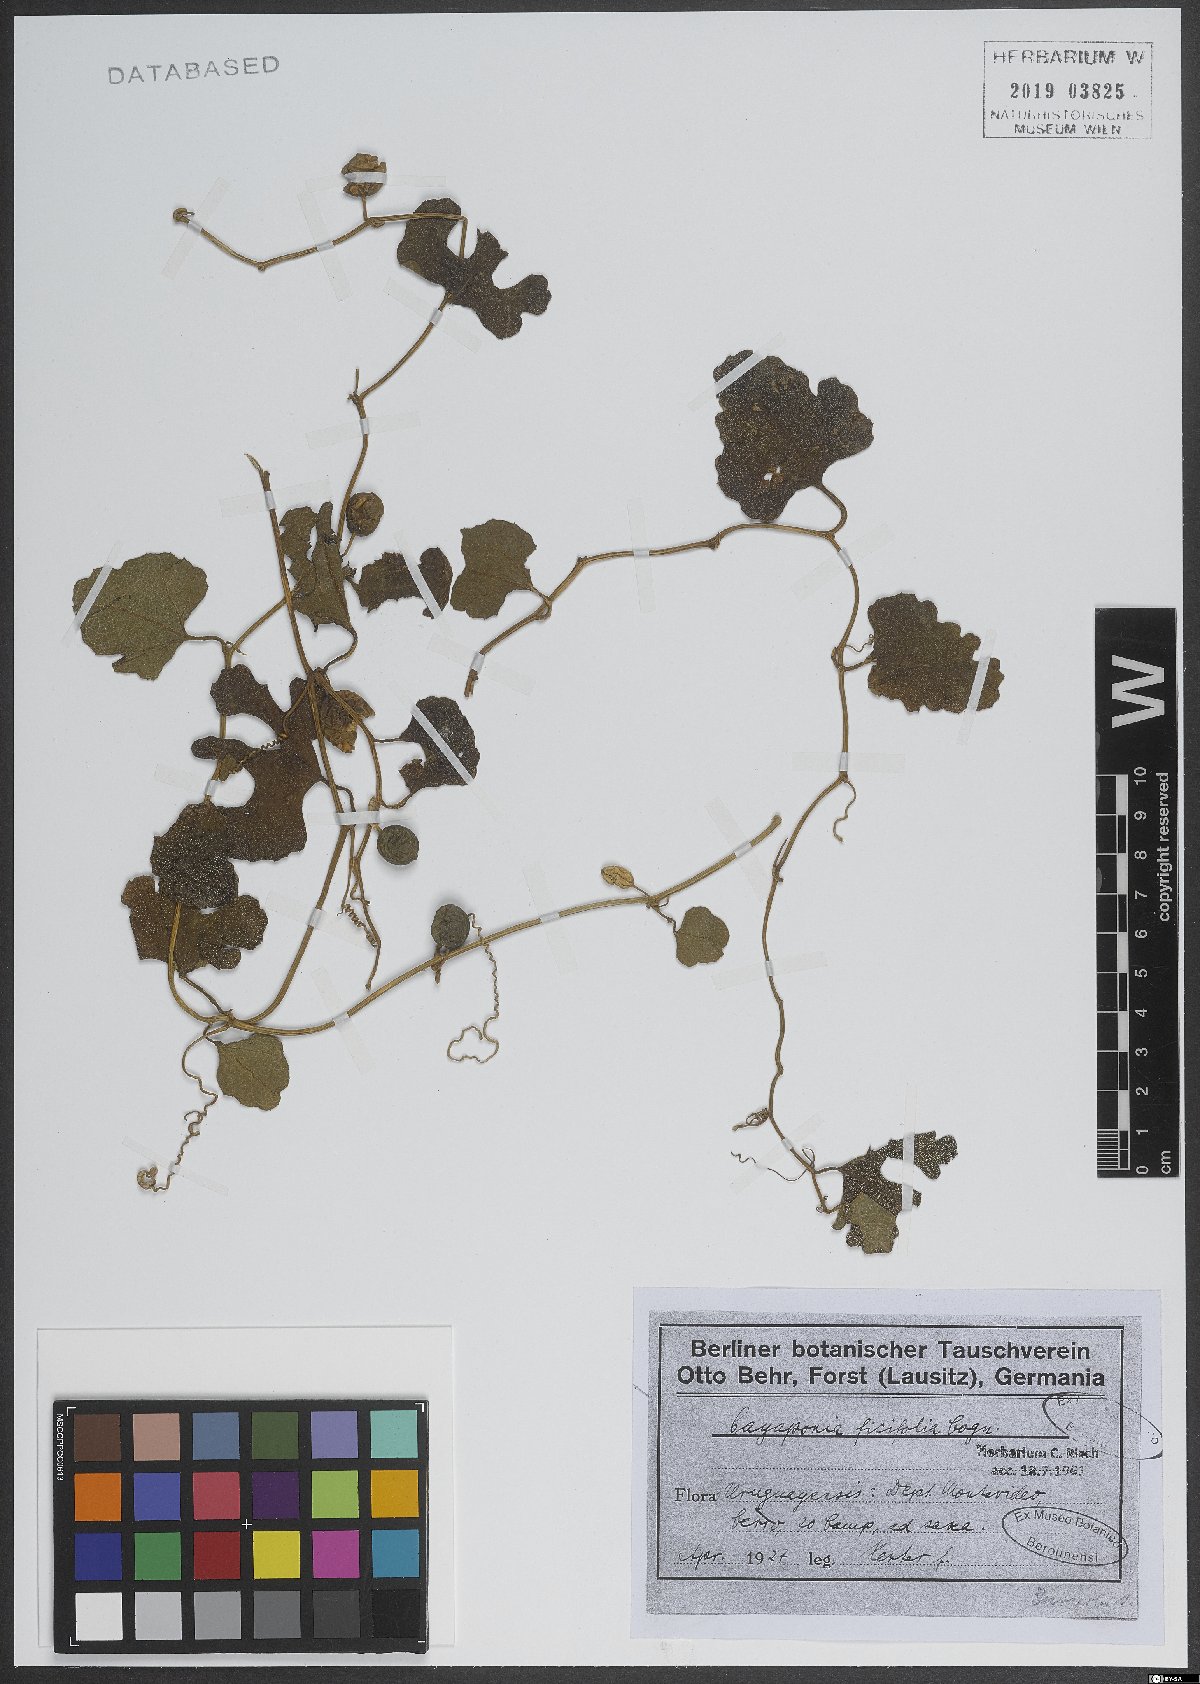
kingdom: Plantae
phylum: Tracheophyta
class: Magnoliopsida
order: Cucurbitales
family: Cucurbitaceae
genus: Cayaponia
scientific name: Cayaponia
